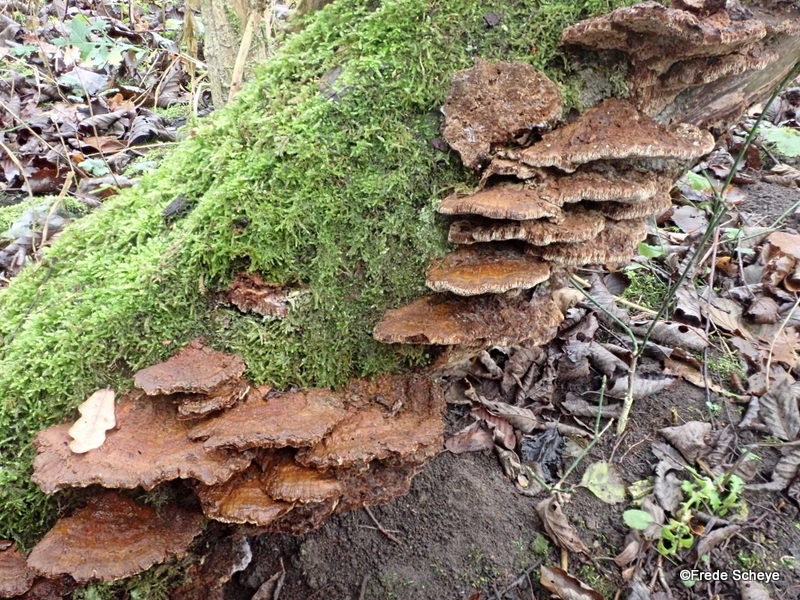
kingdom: Fungi
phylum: Basidiomycota
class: Agaricomycetes
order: Hymenochaetales
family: Hymenochaetaceae
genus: Xanthoporia
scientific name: Xanthoporia radiata
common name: elle-spejlporesvamp
